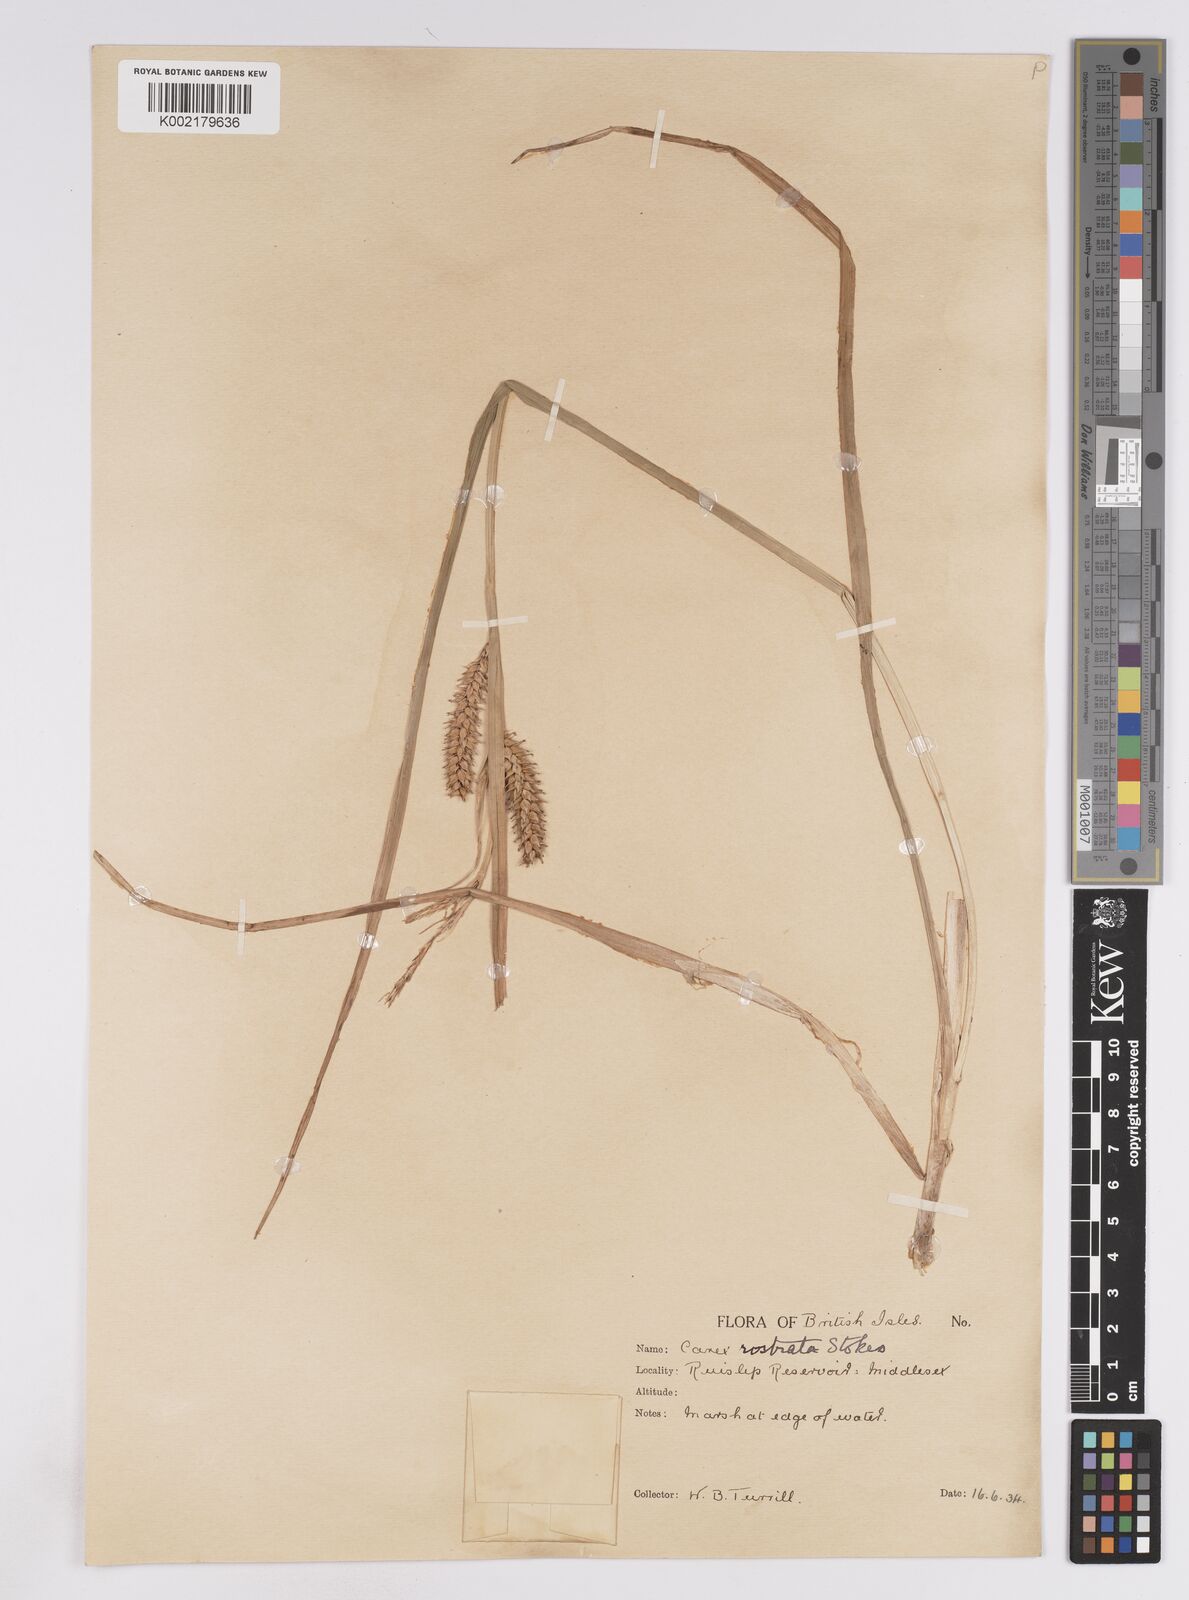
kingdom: Plantae
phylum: Tracheophyta
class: Liliopsida
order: Poales
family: Cyperaceae
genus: Carex
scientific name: Carex rostrata
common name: Bottle sedge
